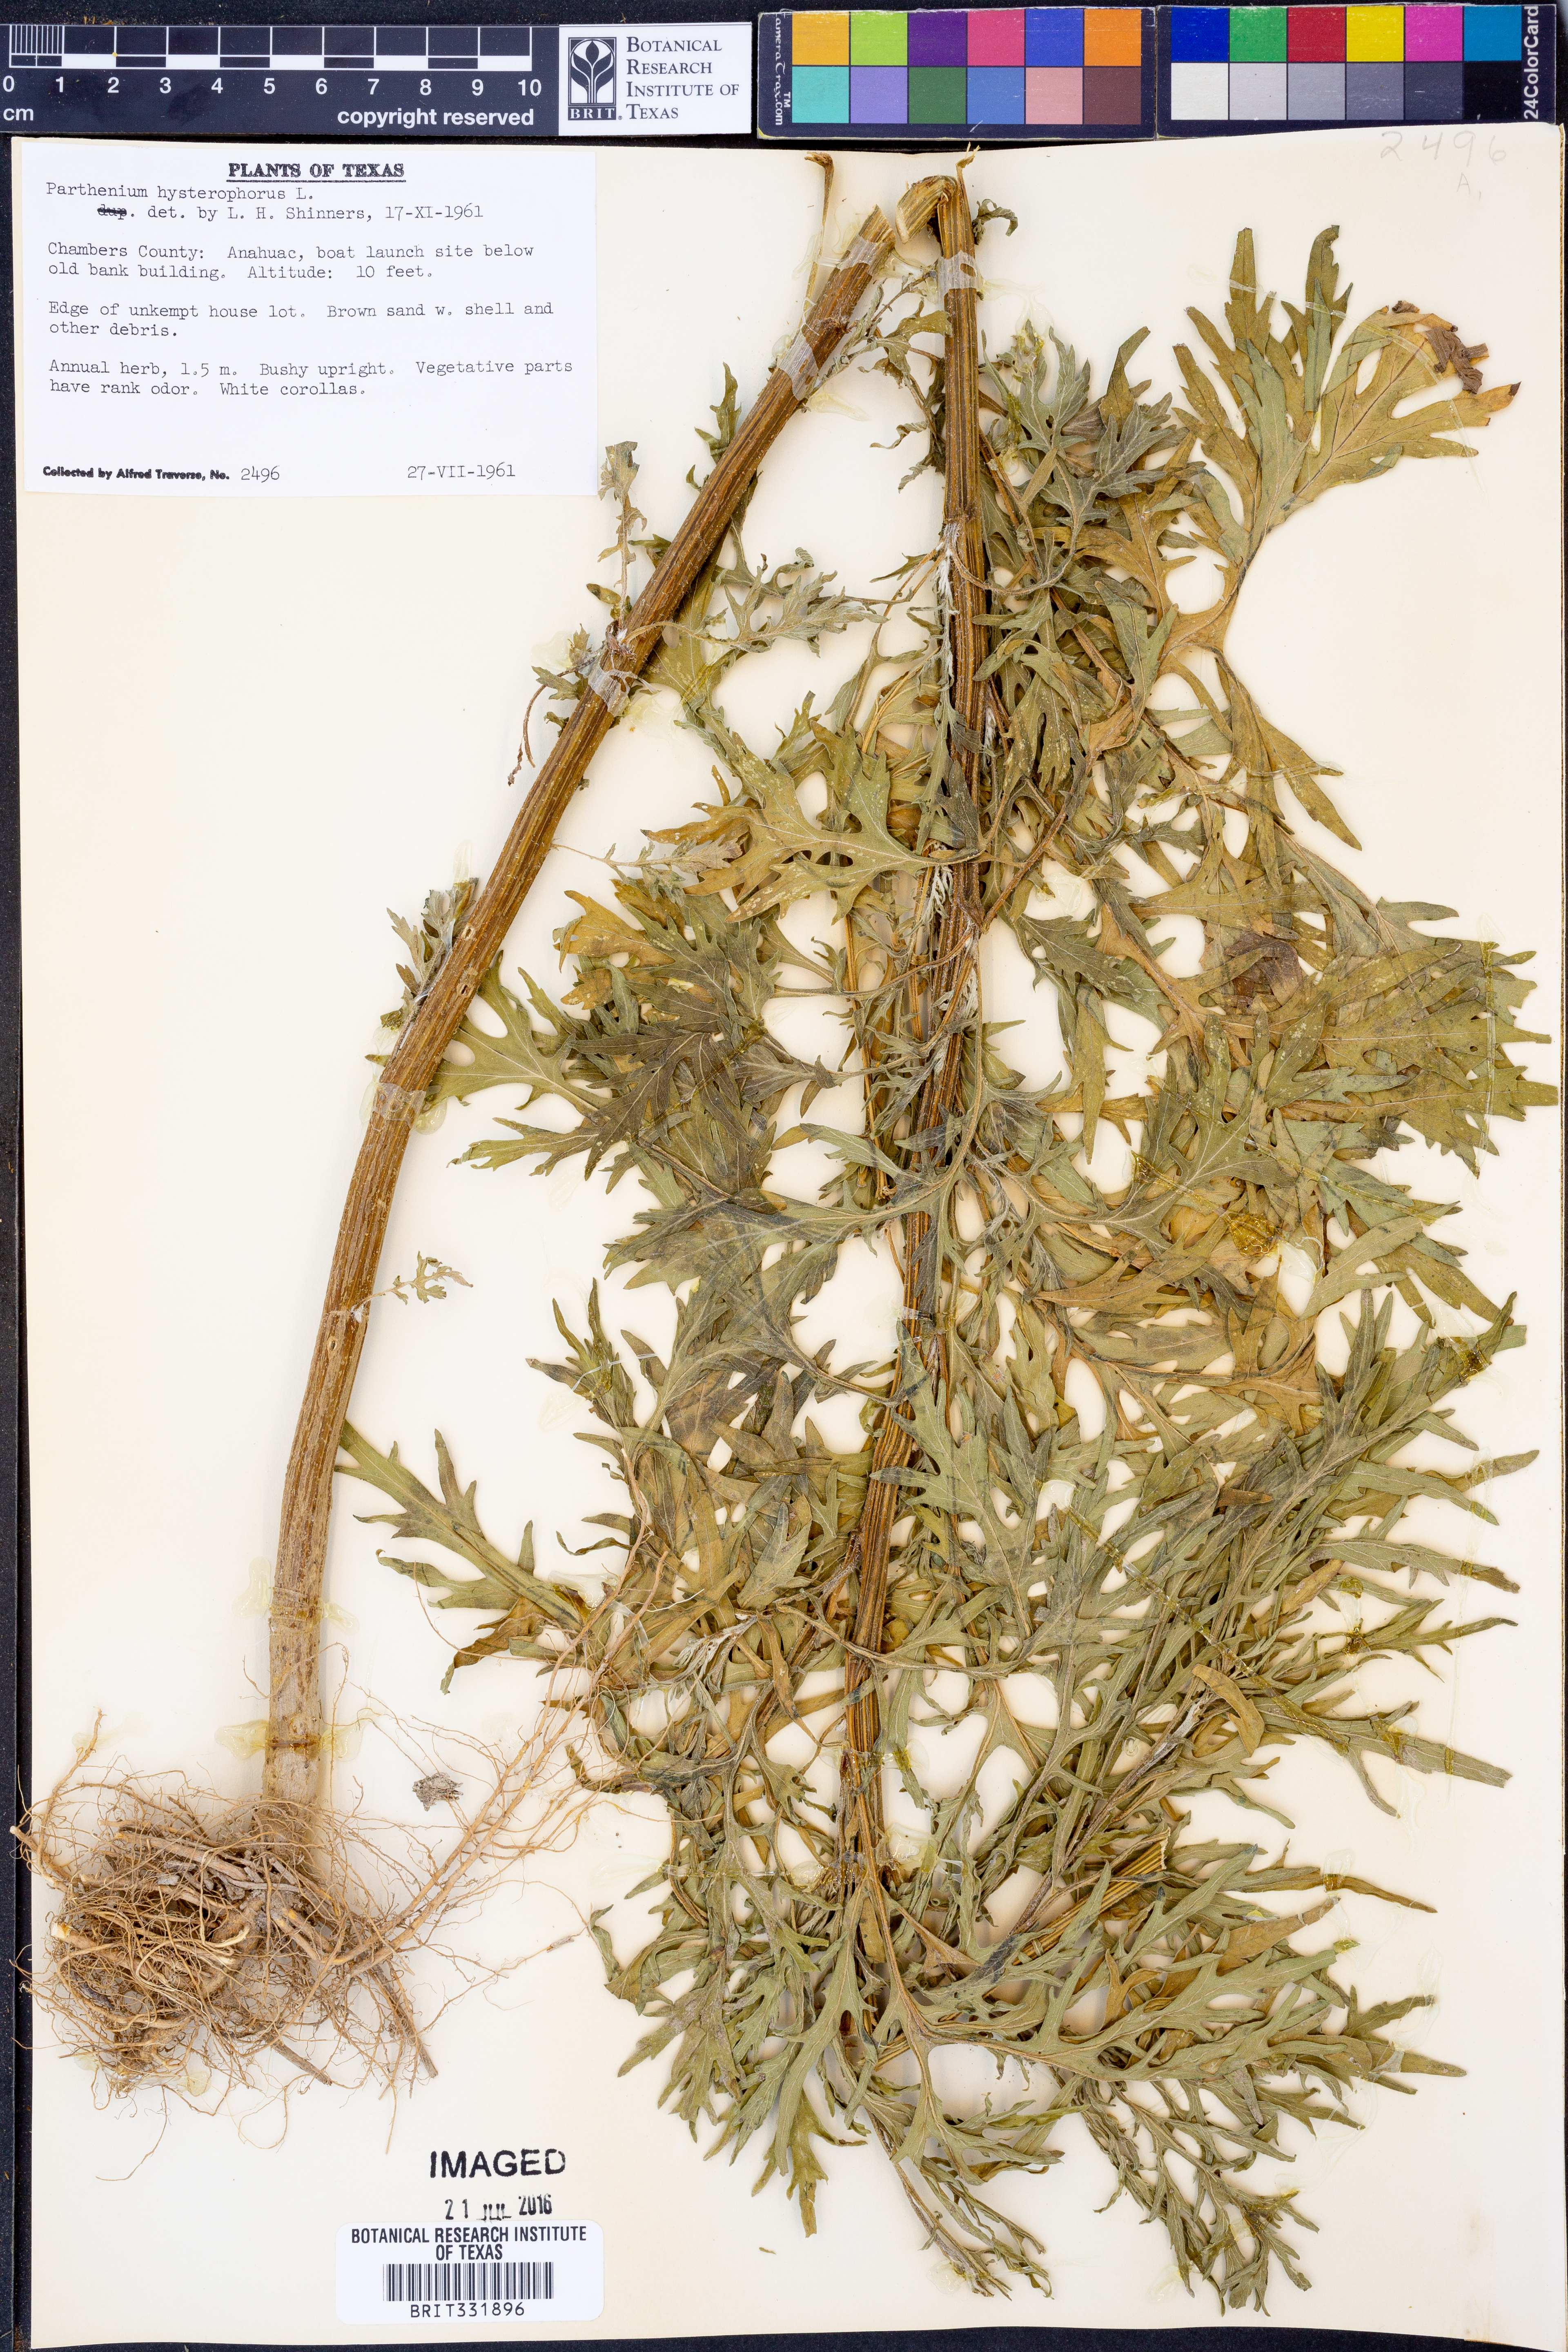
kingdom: Plantae
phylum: Tracheophyta
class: Magnoliopsida
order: Asterales
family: Asteraceae
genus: Parthenium
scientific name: Parthenium hysterophorus
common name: Santa maria feverfew
